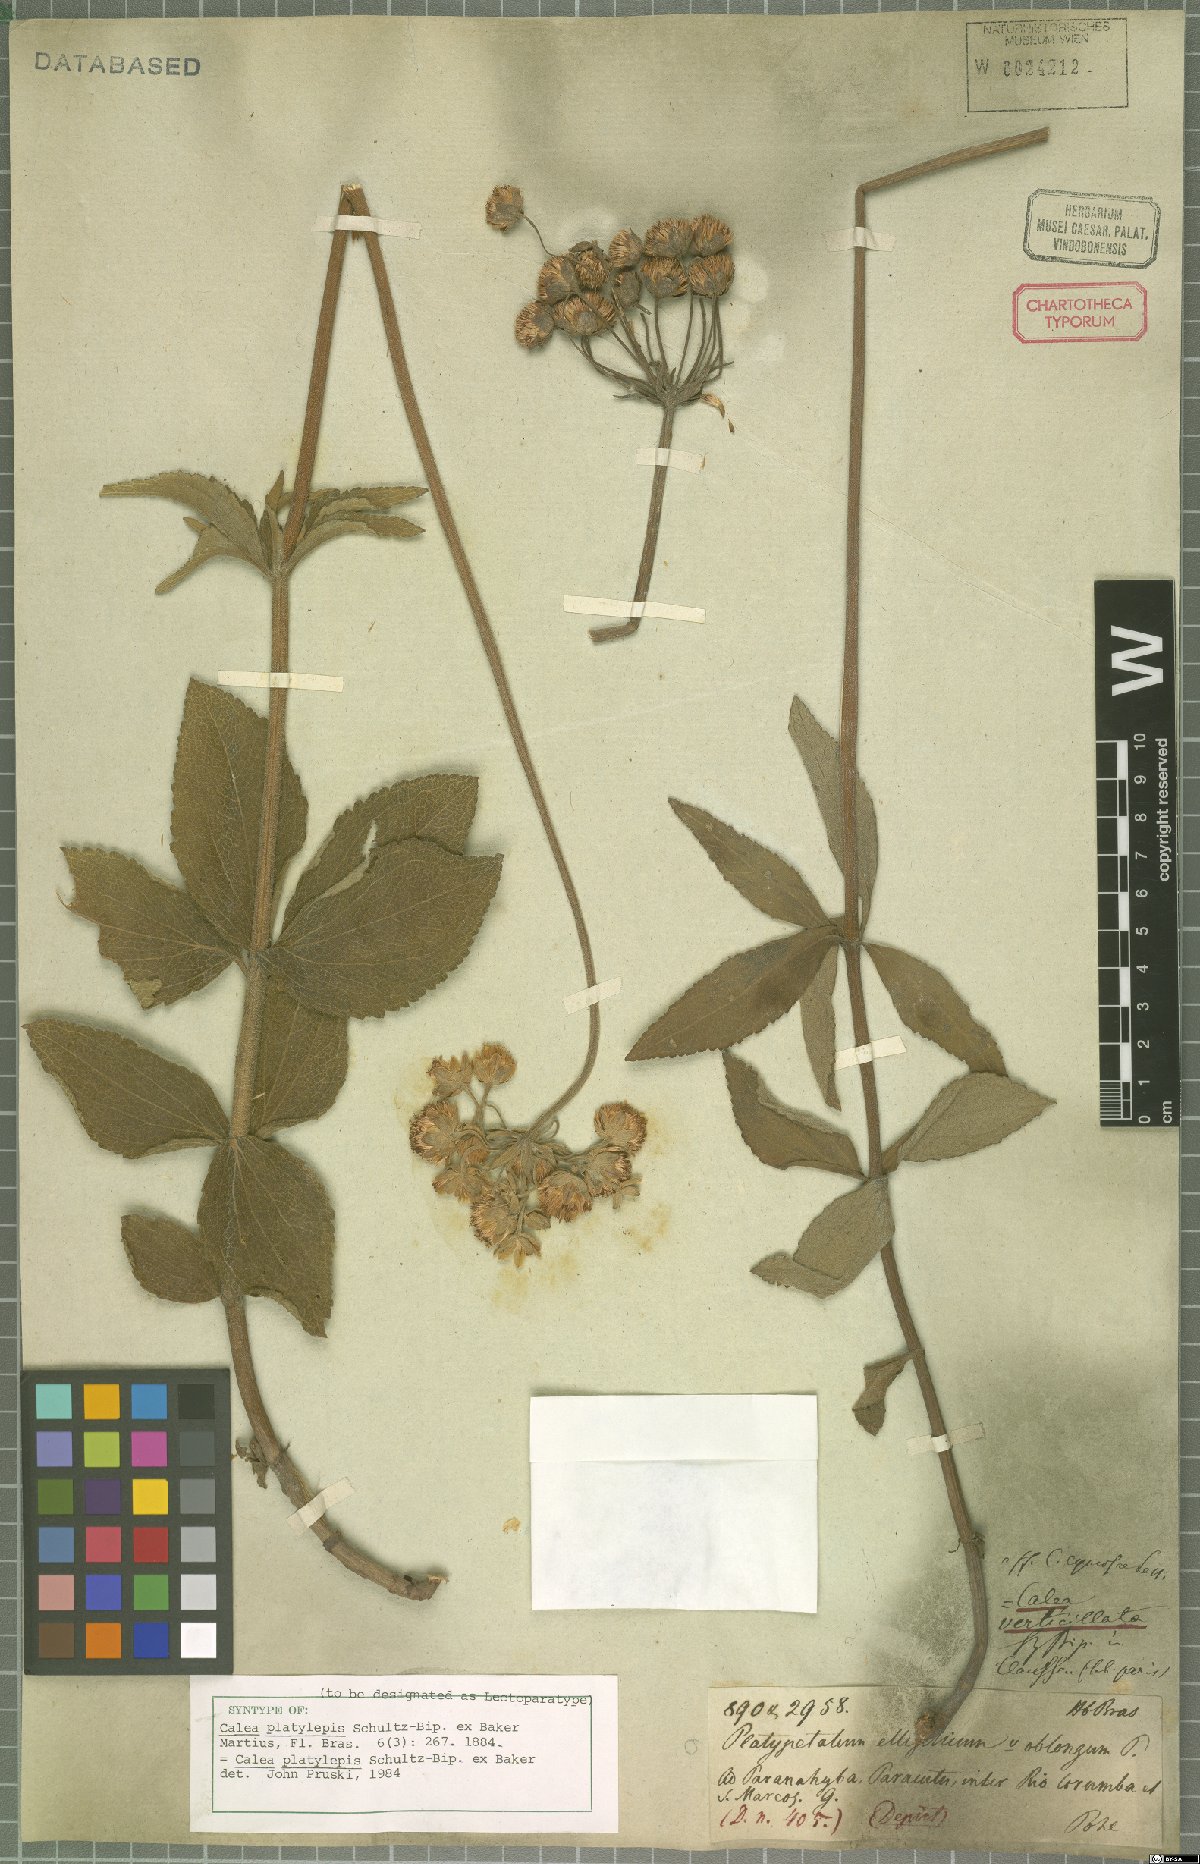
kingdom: Plantae
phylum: Tracheophyta
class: Magnoliopsida
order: Asterales
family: Asteraceae
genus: Calea
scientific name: Calea mediterranea
